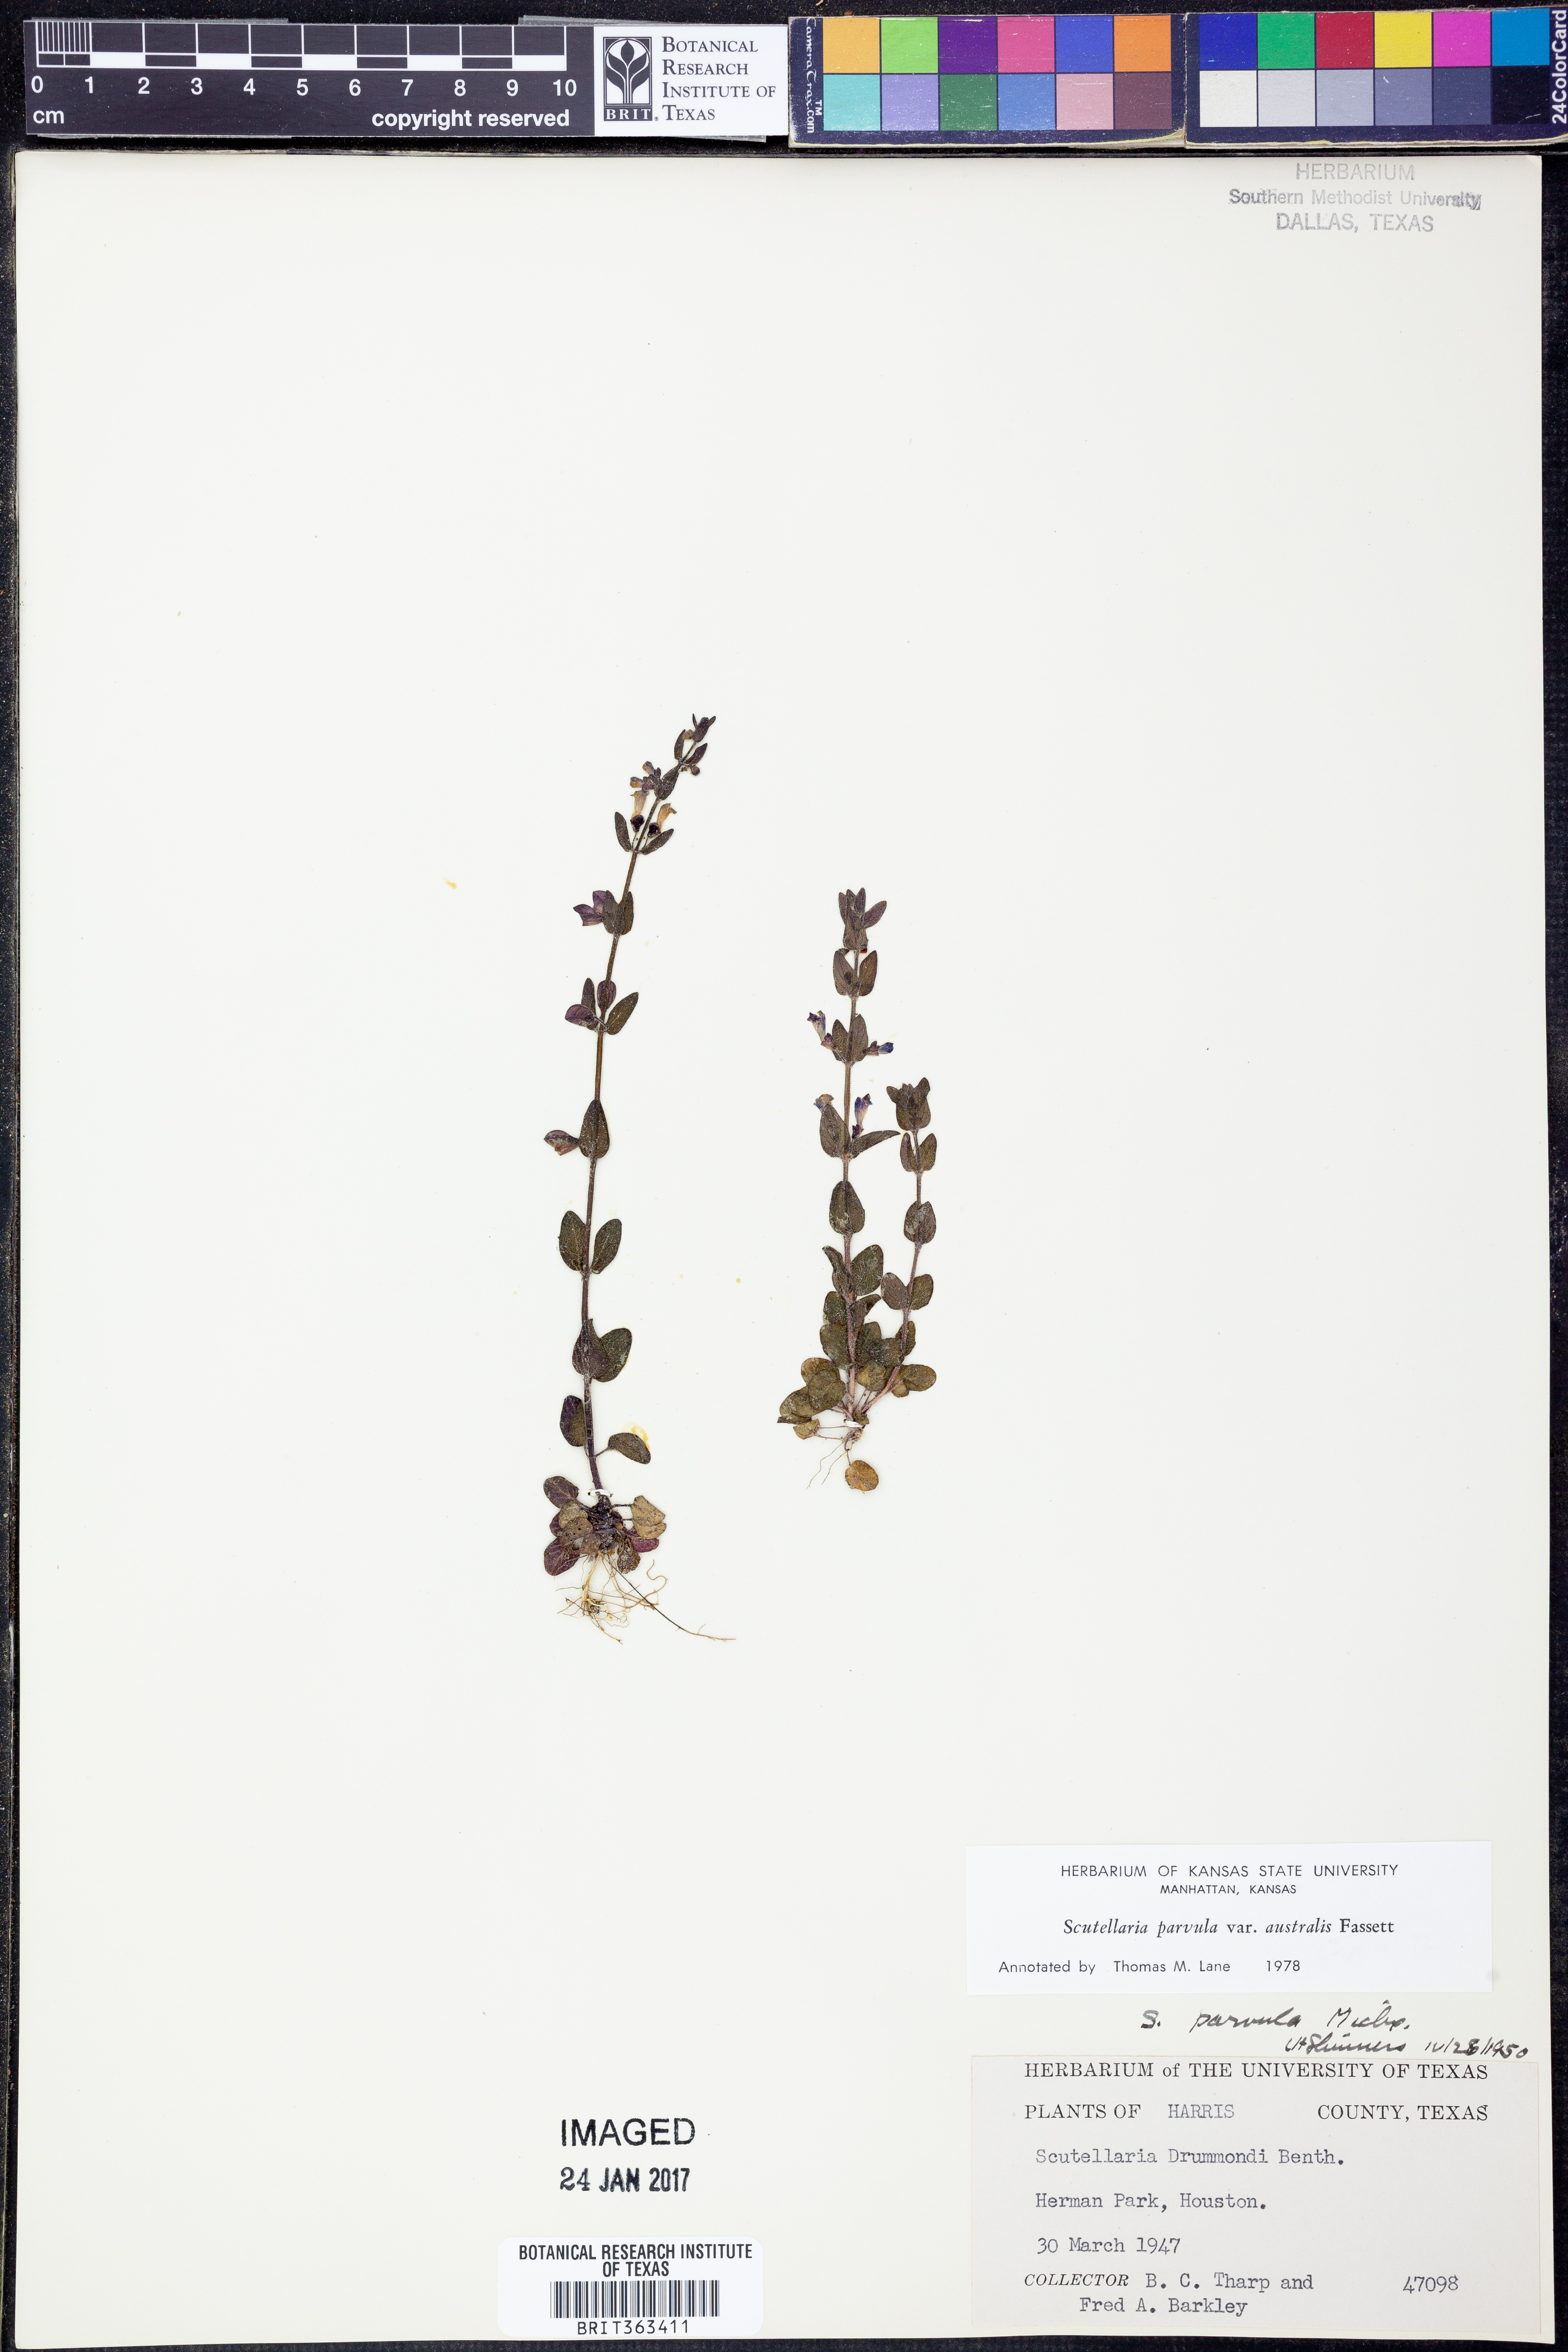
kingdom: Plantae
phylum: Tracheophyta
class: Magnoliopsida
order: Lamiales
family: Lamiaceae
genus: Scutellaria
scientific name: Scutellaria parvula
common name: Little scullcap
